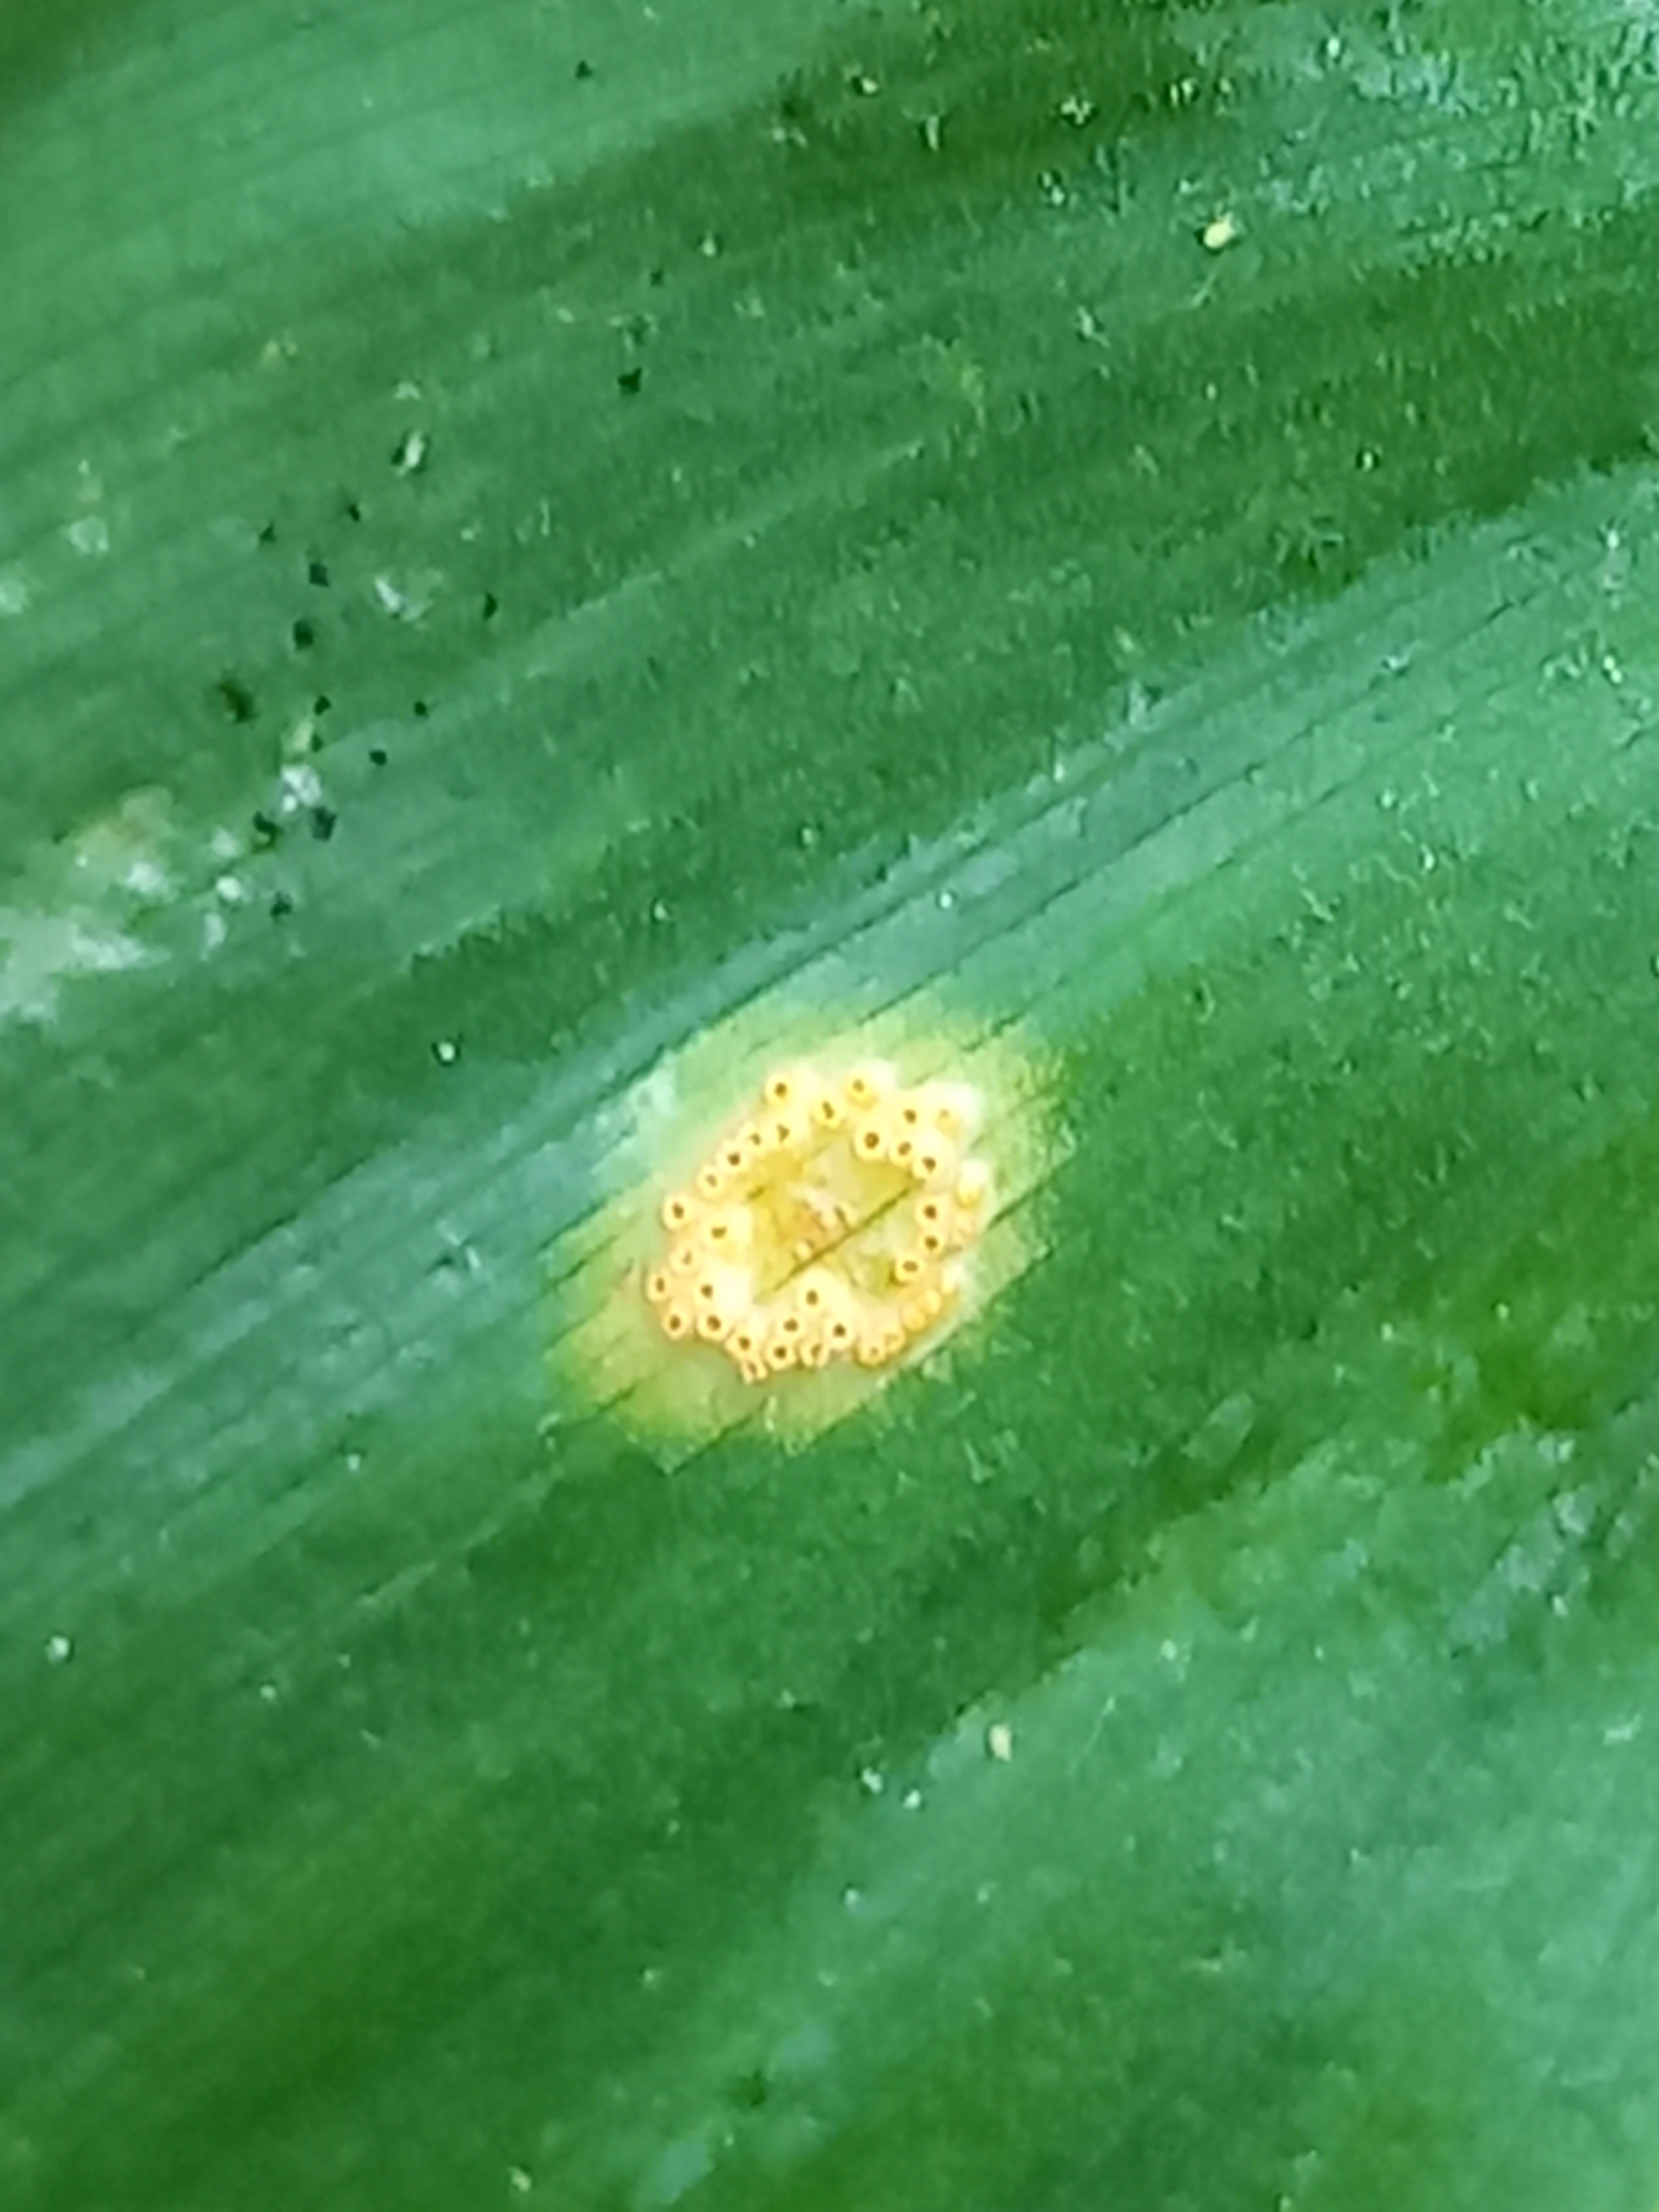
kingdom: Fungi
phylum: Basidiomycota
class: Pucciniomycetes
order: Pucciniales
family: Pucciniaceae
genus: Puccinia
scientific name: Puccinia sessilis
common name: Arum rust
